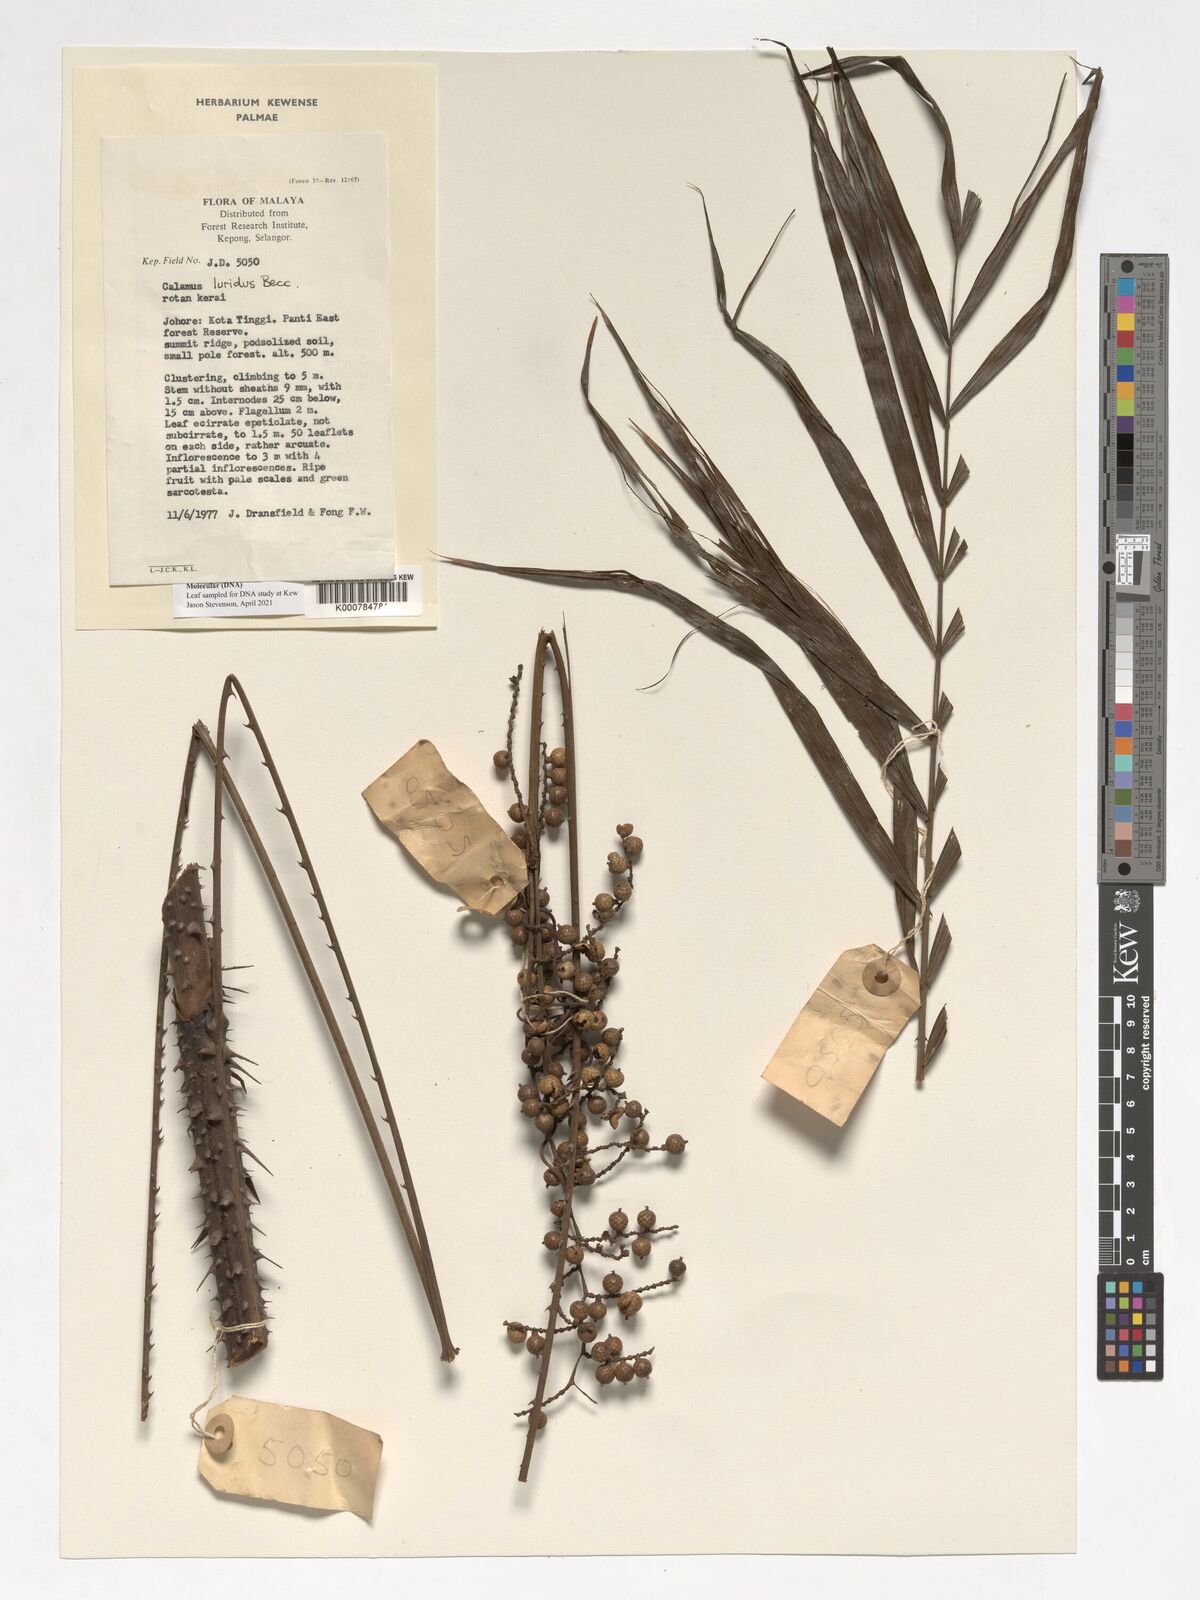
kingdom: Plantae
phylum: Tracheophyta
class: Liliopsida
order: Arecales
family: Arecaceae
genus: Calamus
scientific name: Calamus micranthus
